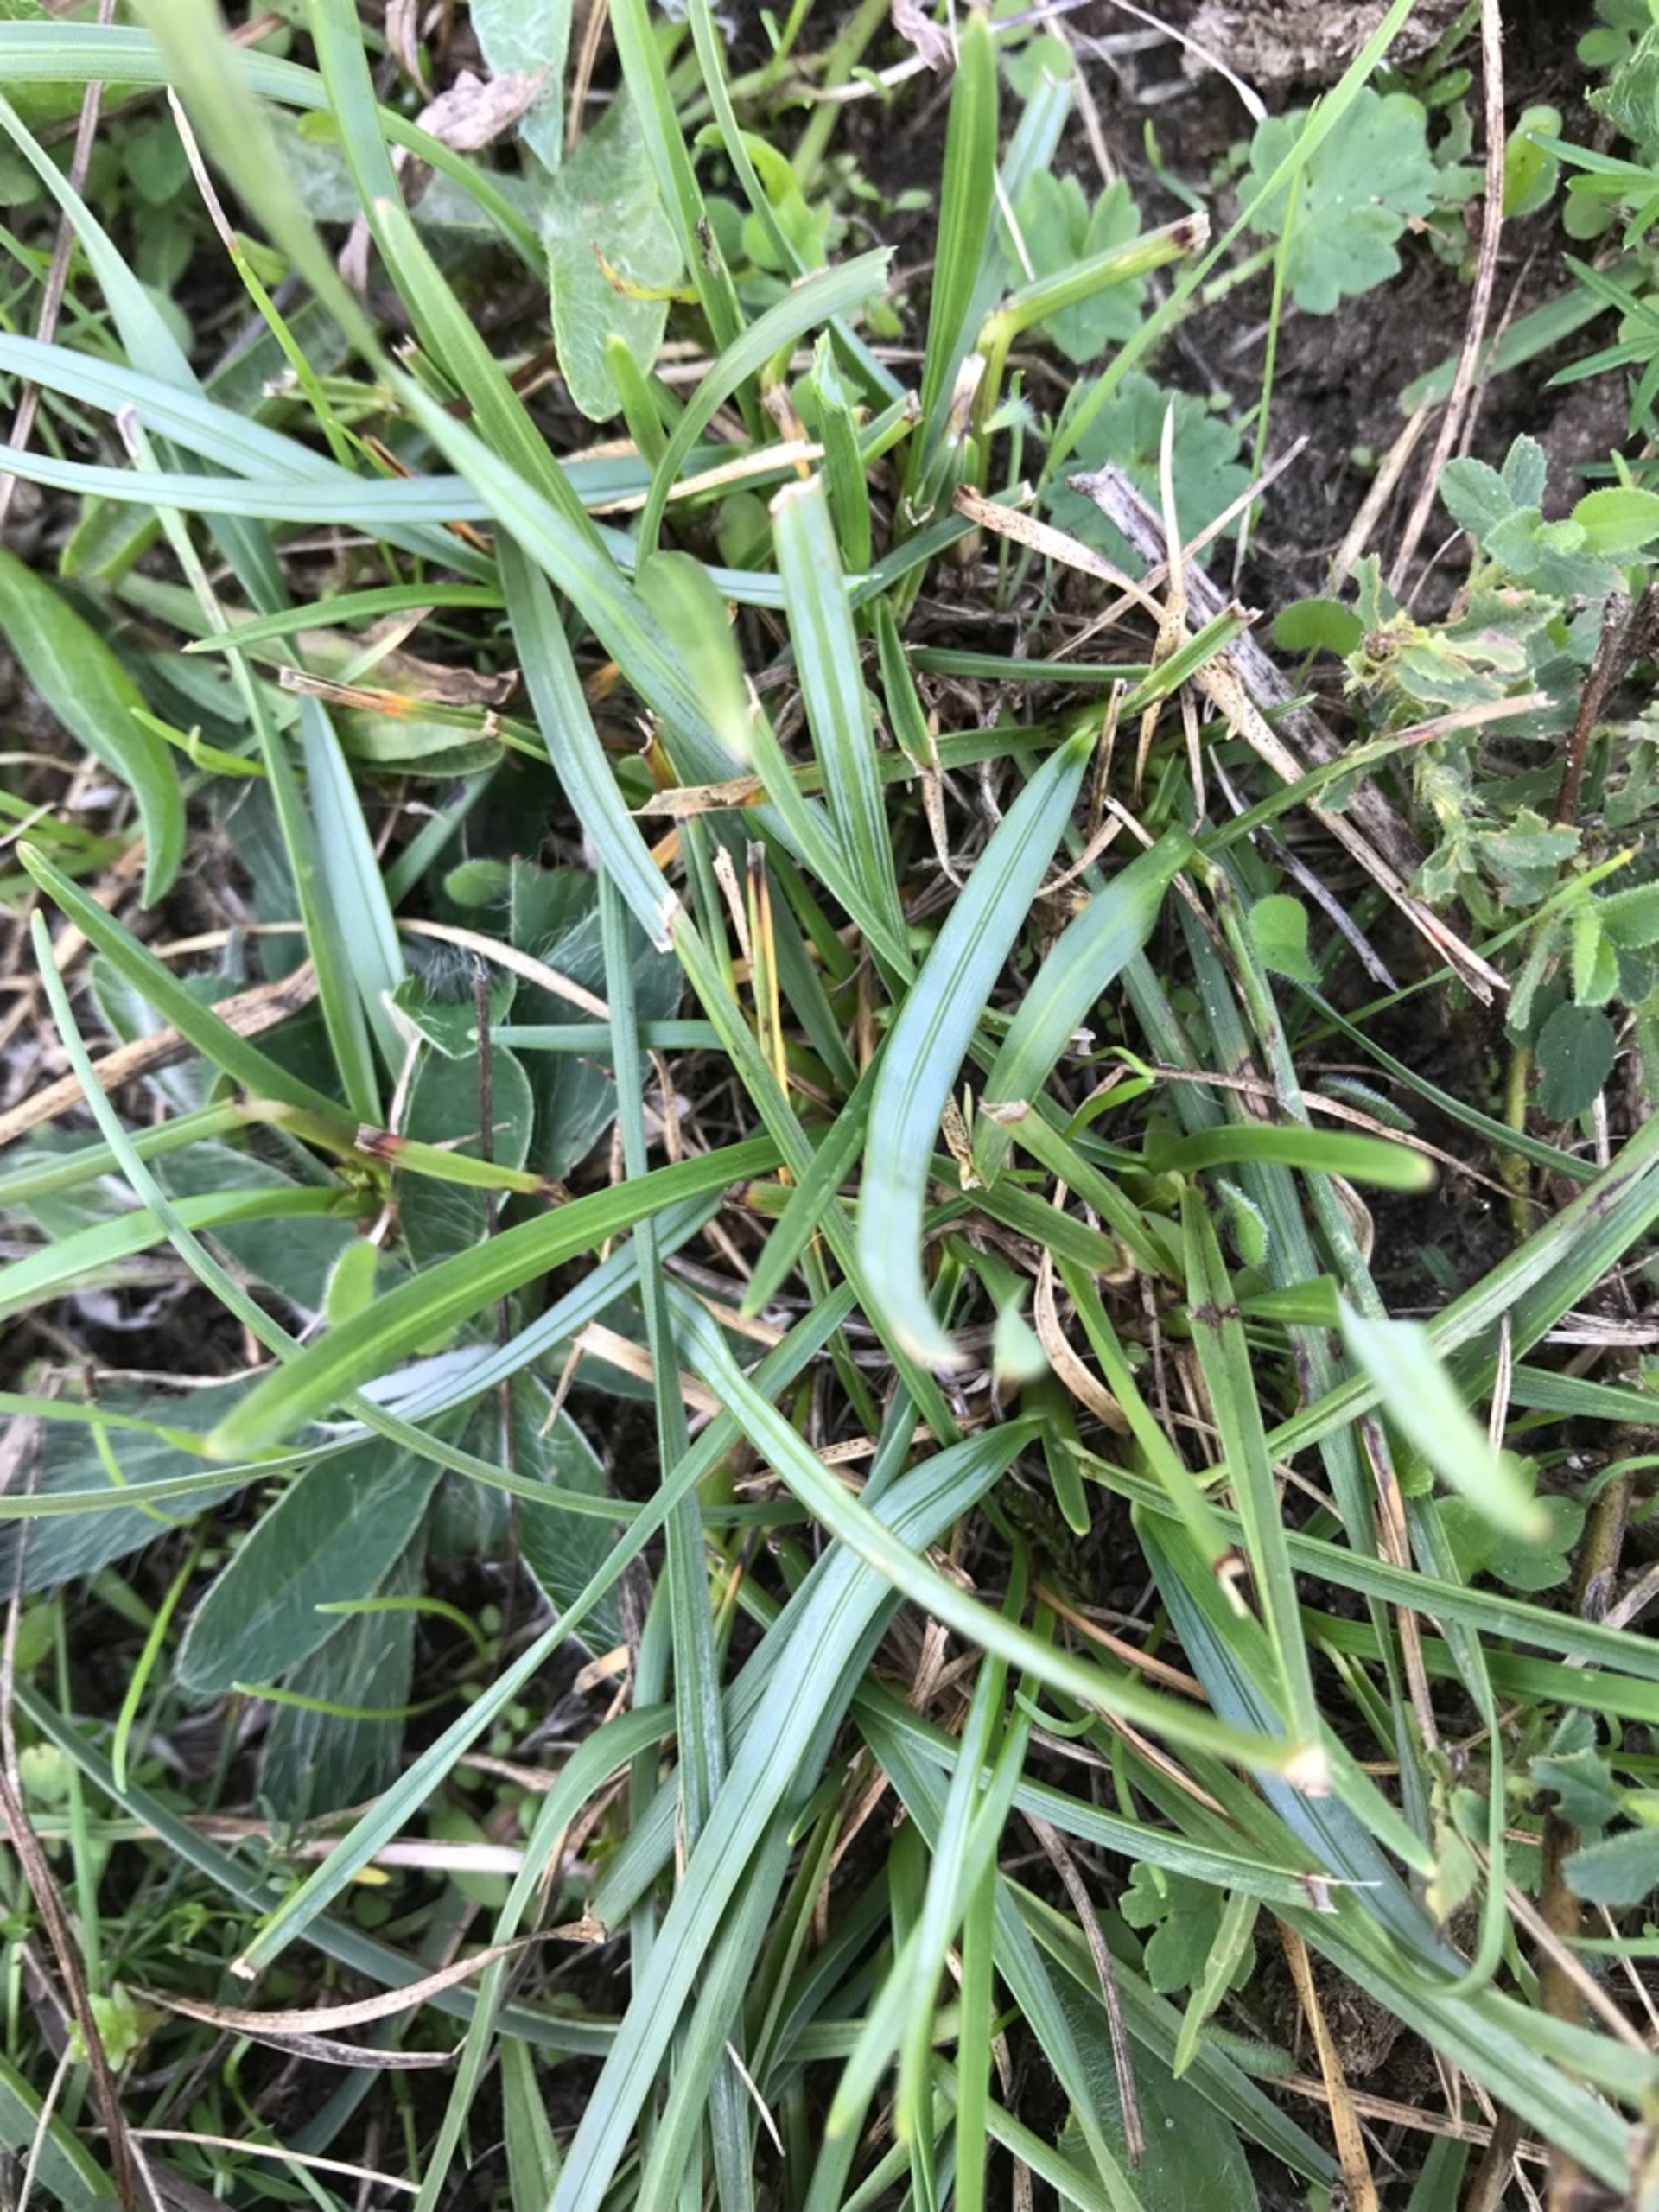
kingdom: Plantae
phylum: Tracheophyta
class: Liliopsida
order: Poales
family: Poaceae
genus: Helictochloa
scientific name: Helictochloa pratensis
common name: Eng-havre
